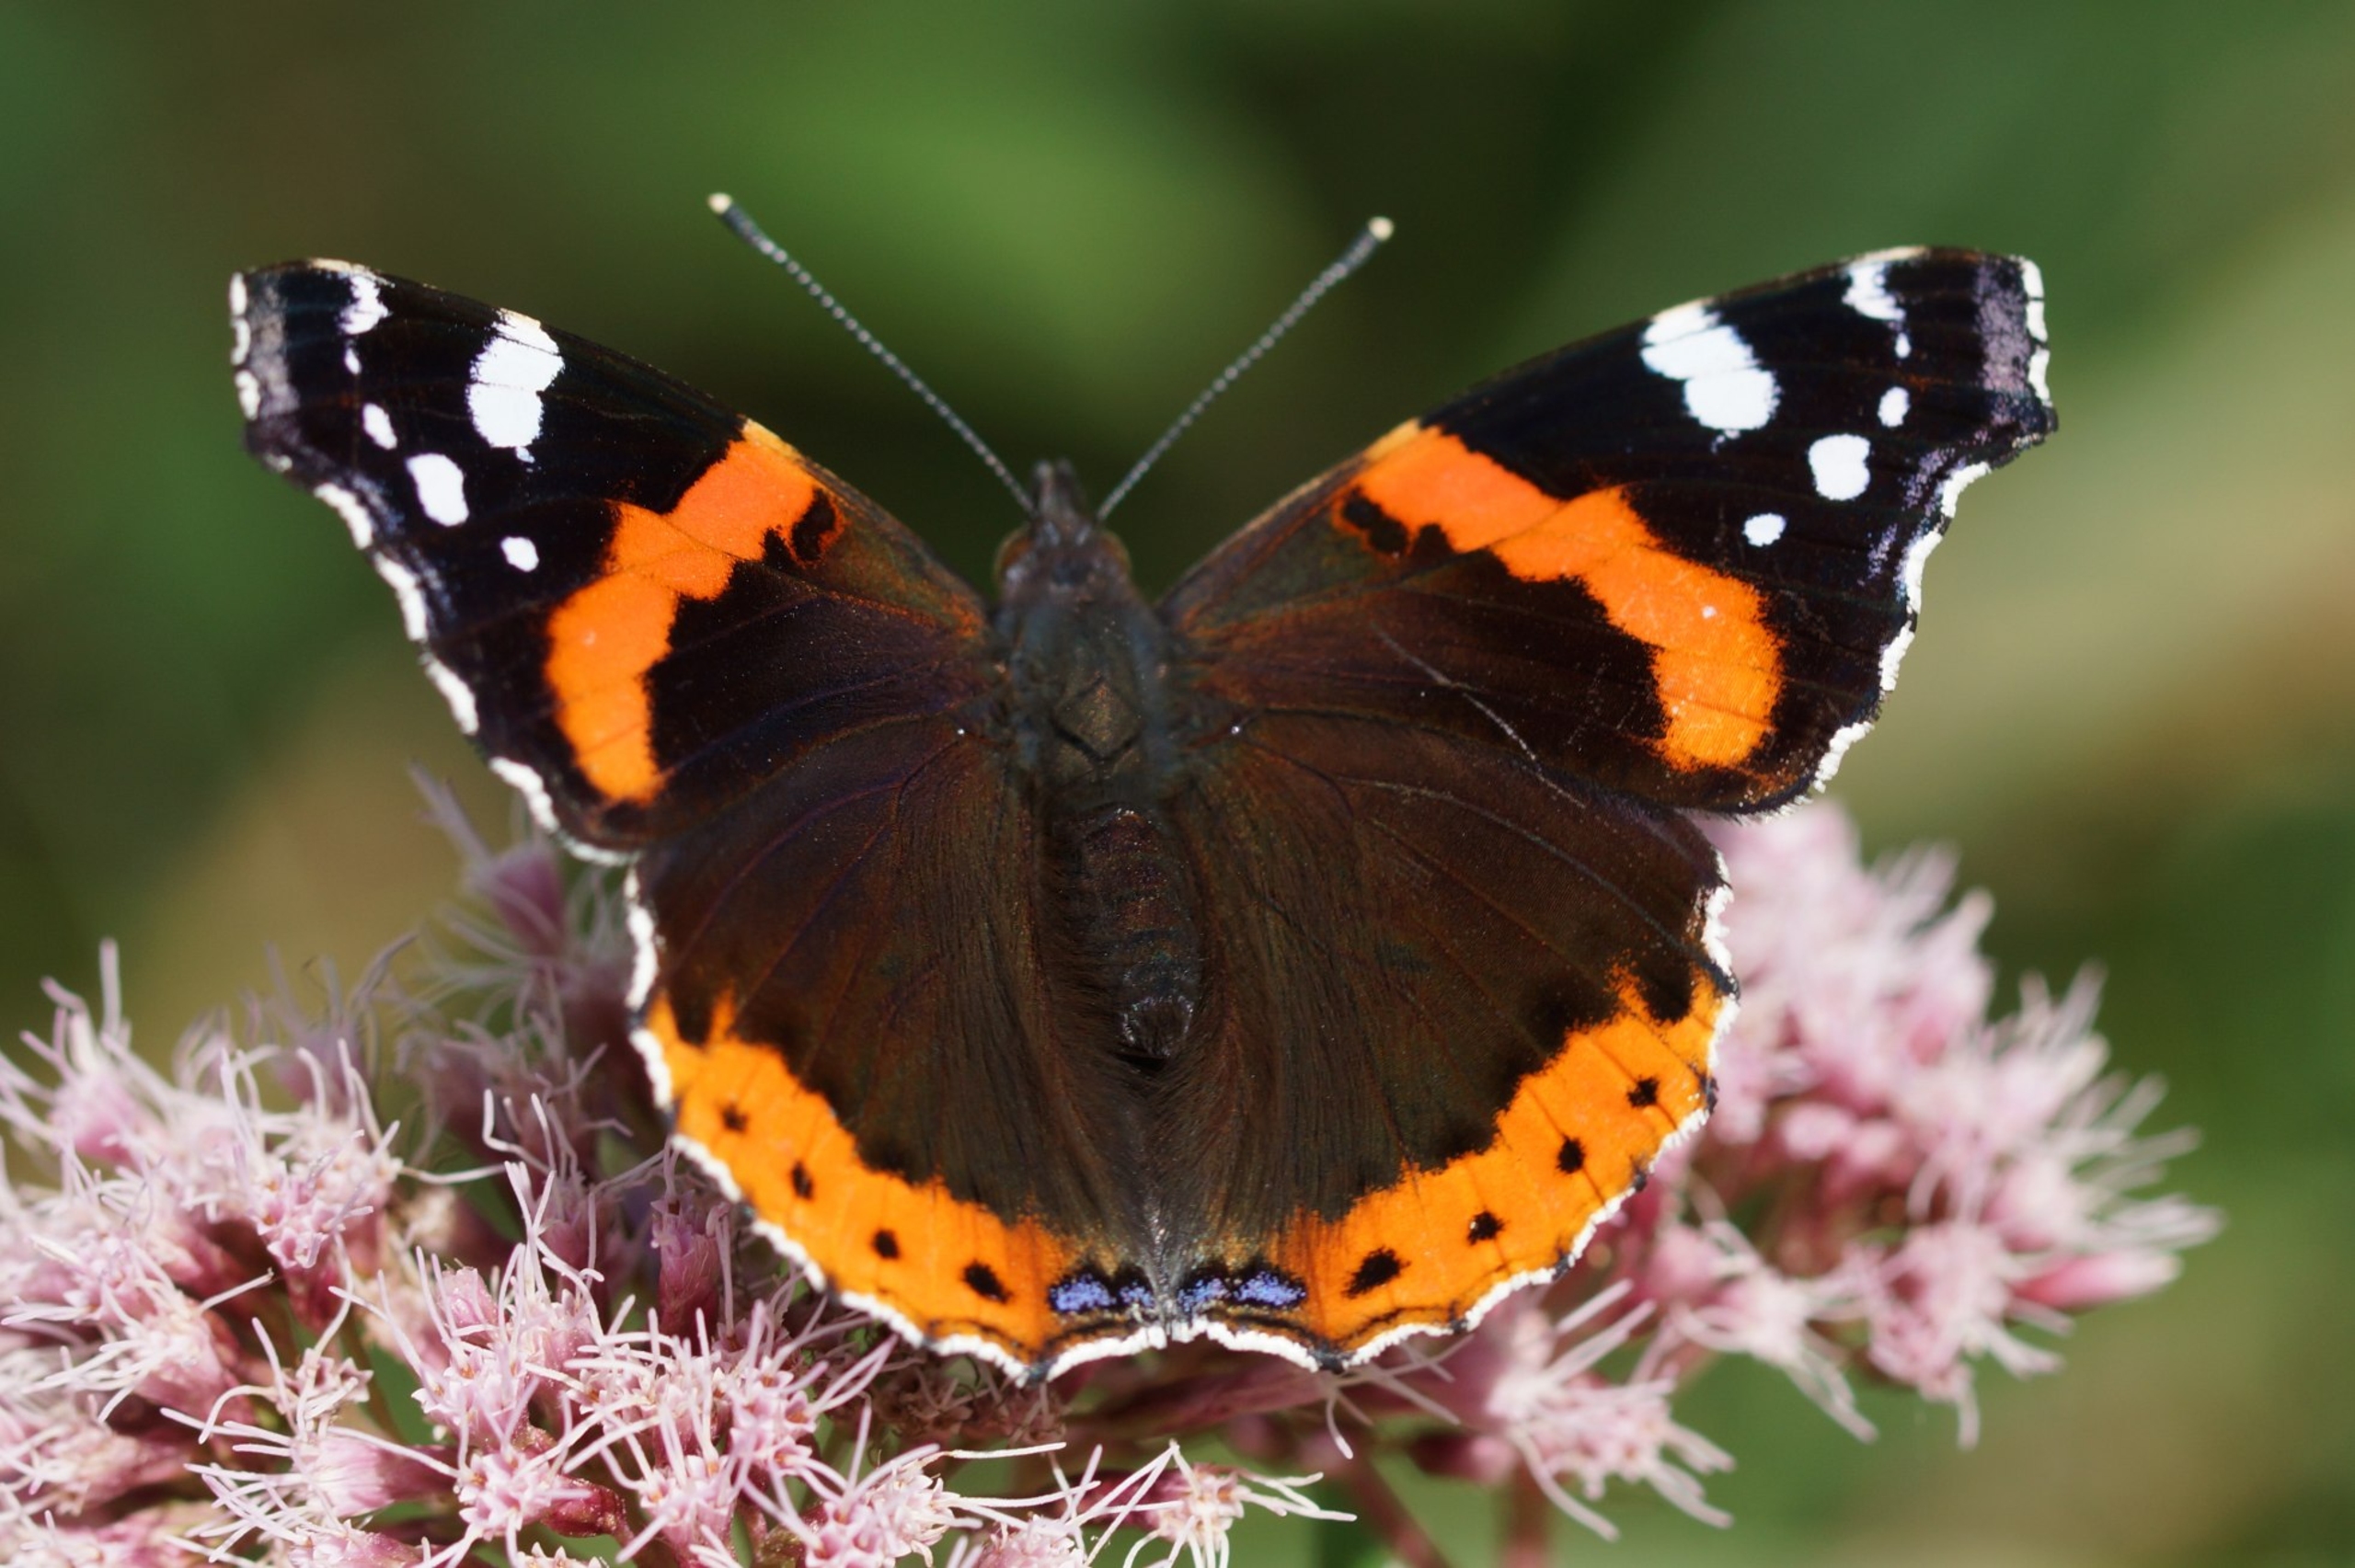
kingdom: Animalia
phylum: Arthropoda
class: Insecta
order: Lepidoptera
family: Nymphalidae
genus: Vanessa
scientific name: Vanessa atalanta
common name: Admiral
